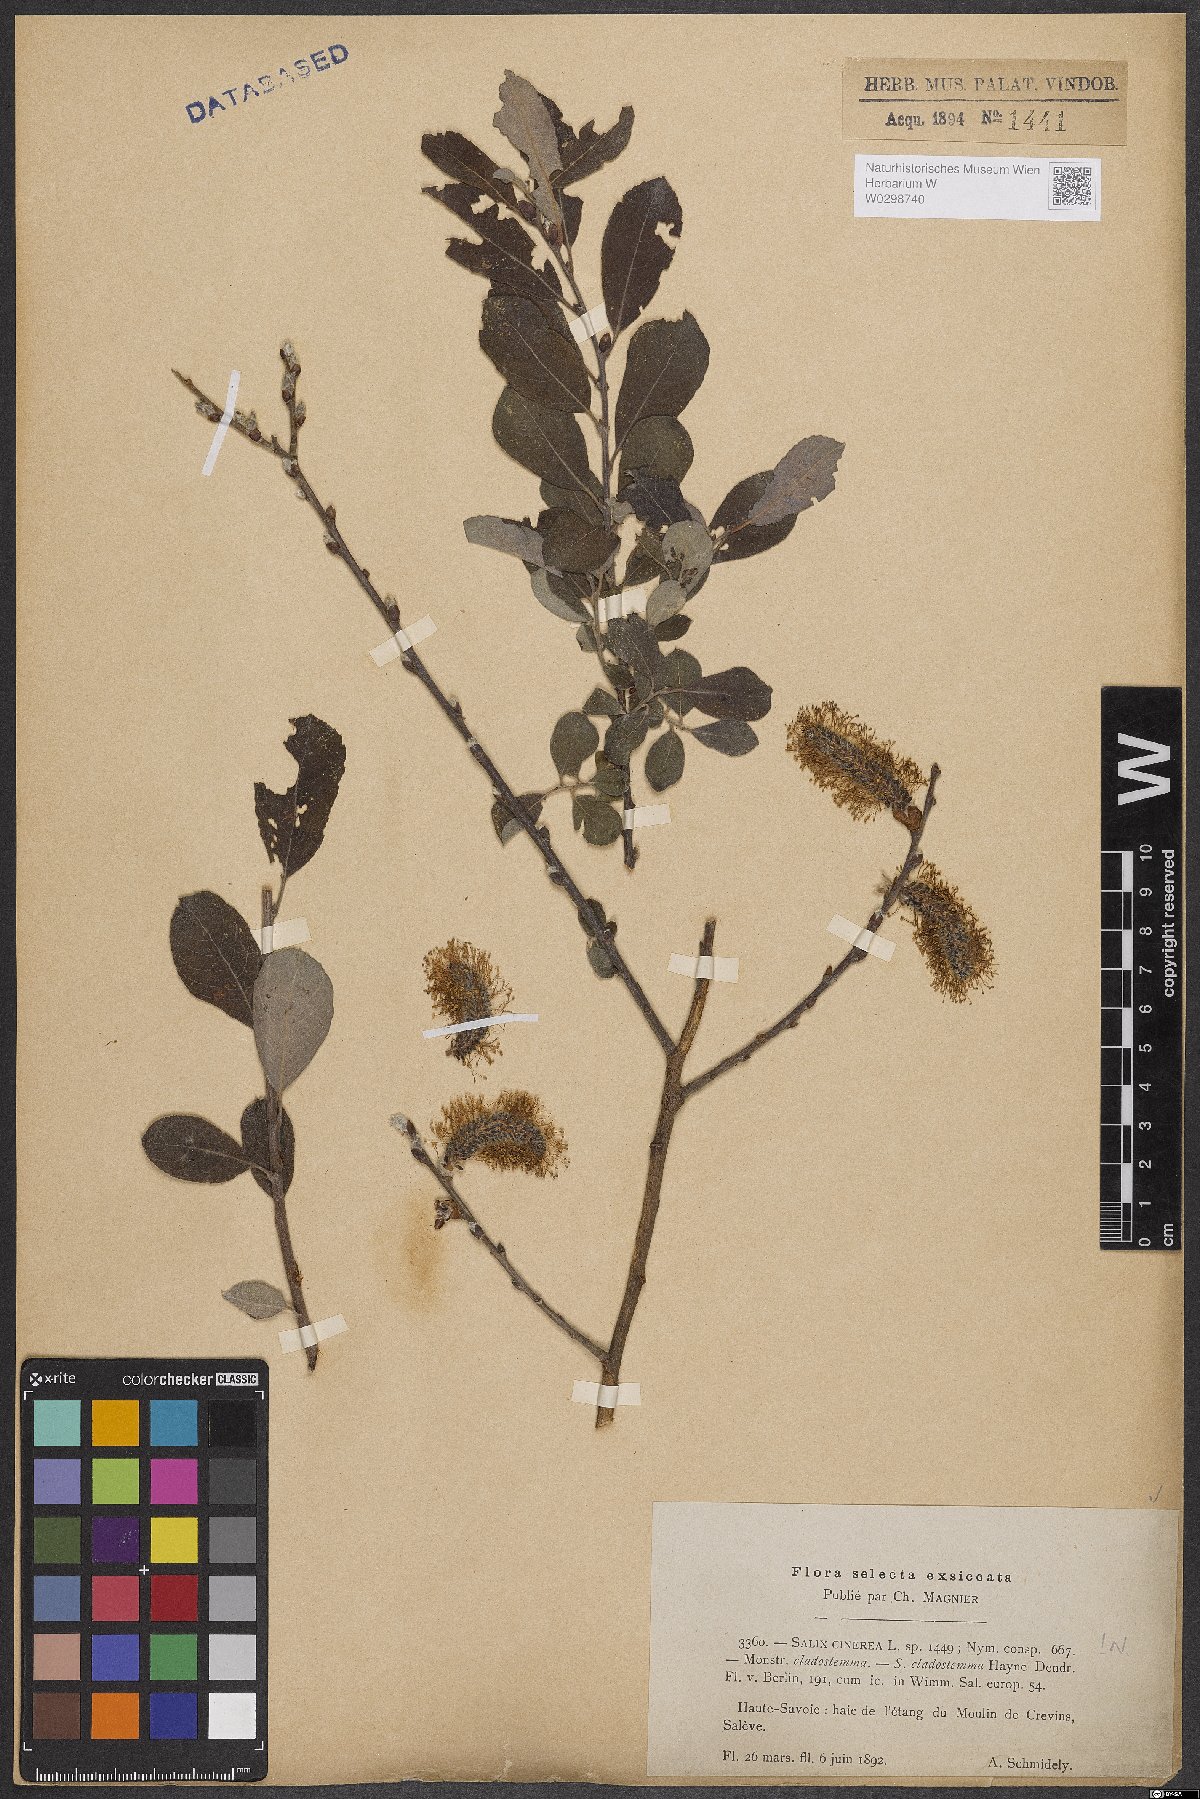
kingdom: Plantae
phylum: Tracheophyta
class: Magnoliopsida
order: Malpighiales
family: Salicaceae
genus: Salix
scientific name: Salix cinerea
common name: Common sallow
